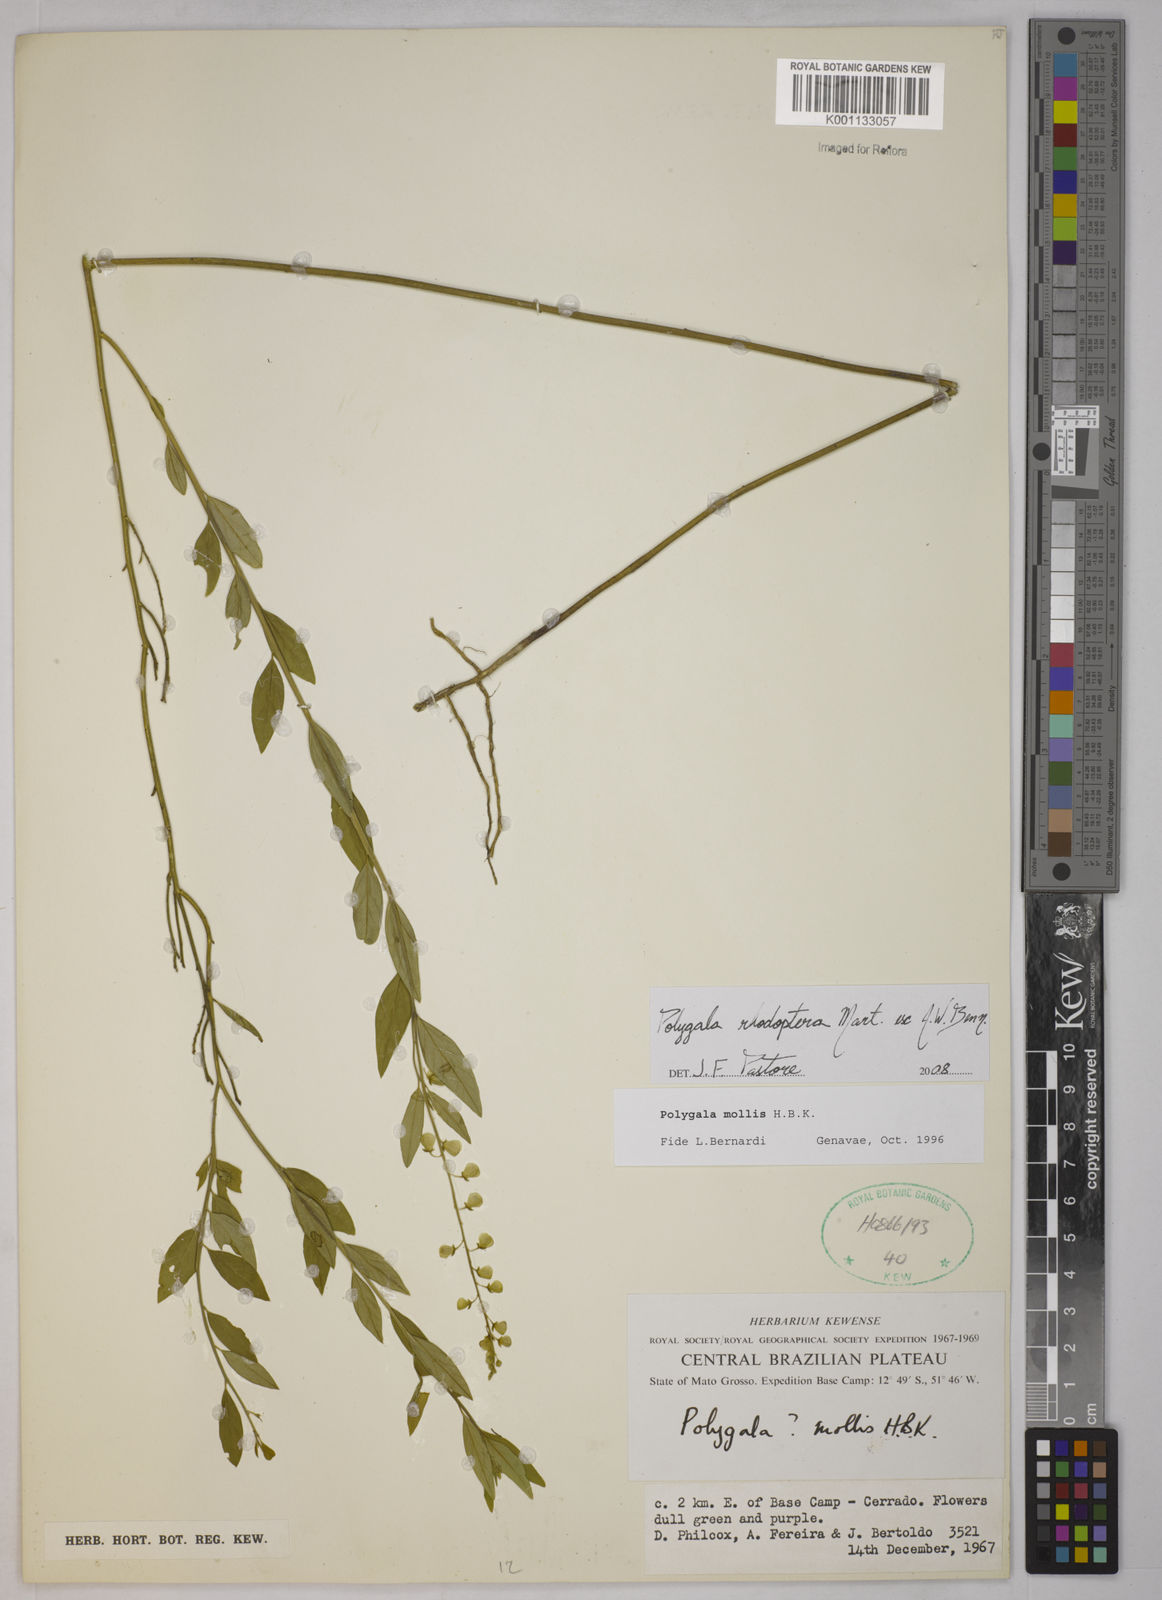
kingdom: Plantae
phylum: Tracheophyta
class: Magnoliopsida
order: Fabales
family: Polygalaceae
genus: Asemeia
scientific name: Asemeia rhodoptera
